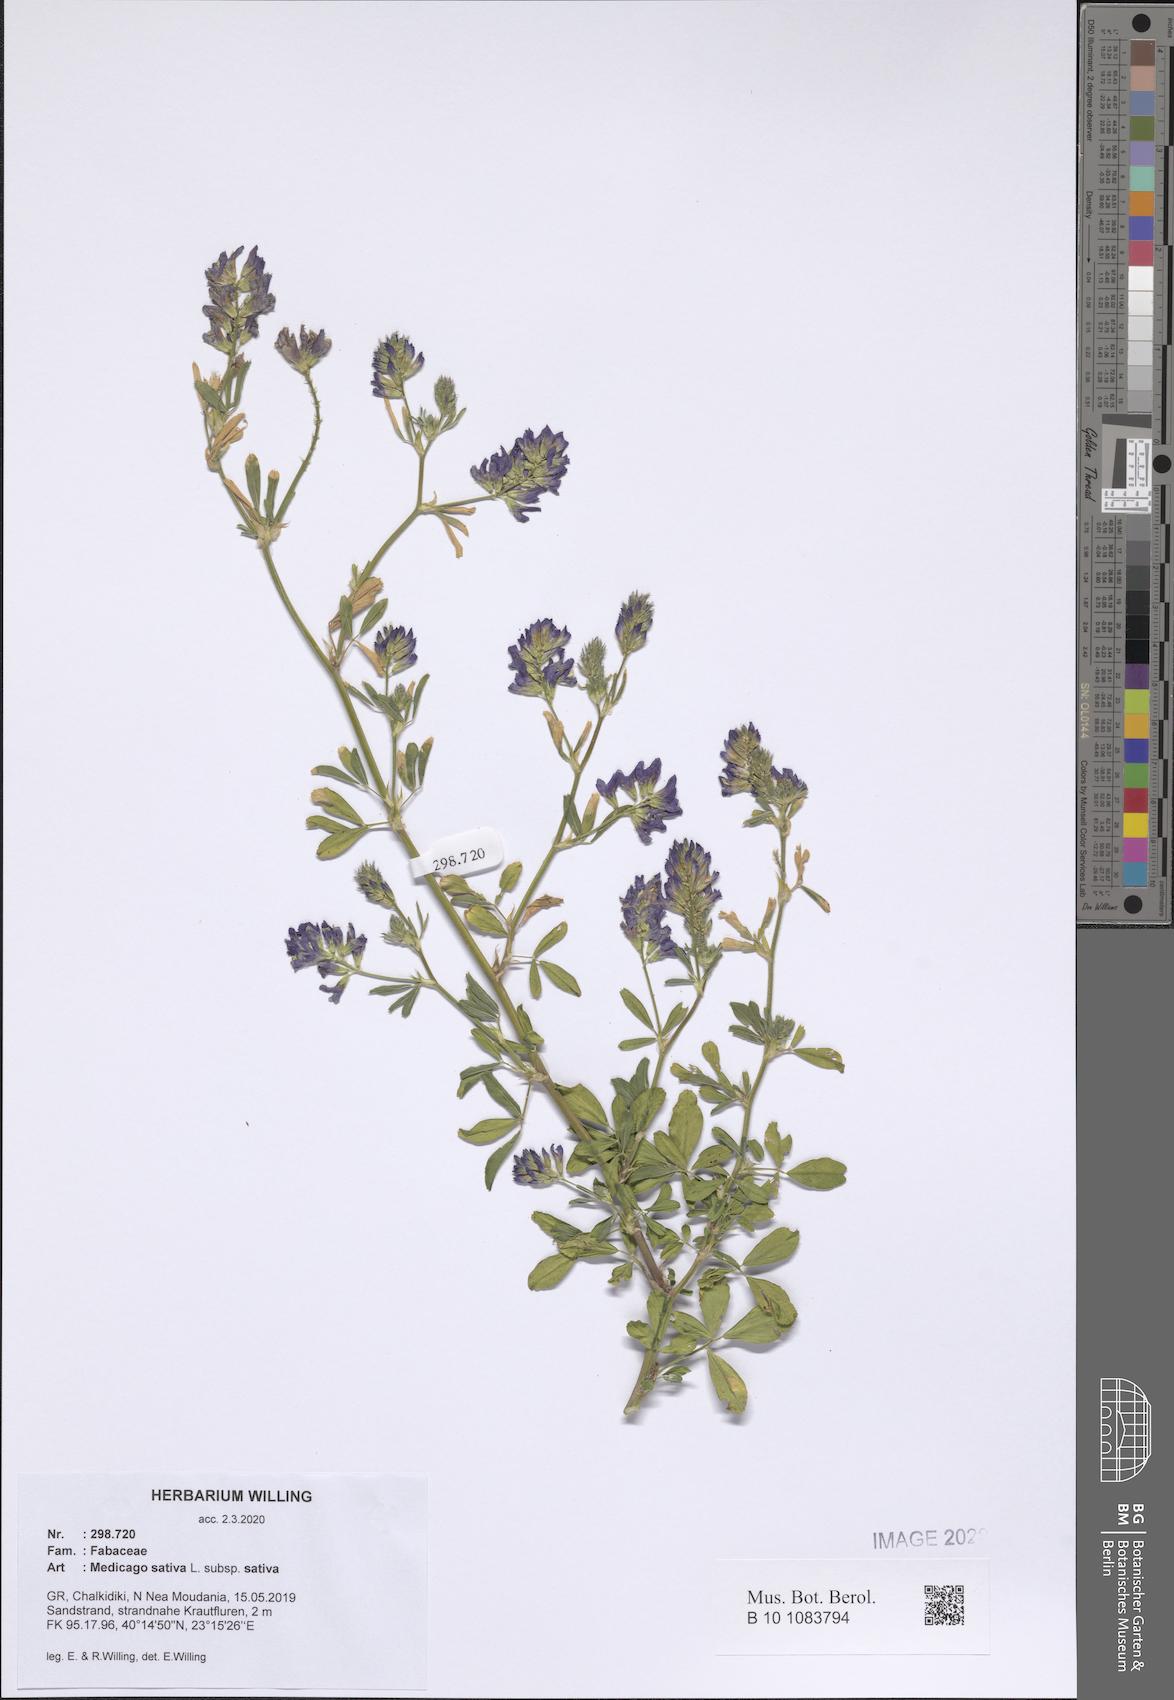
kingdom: Plantae
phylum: Tracheophyta
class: Magnoliopsida
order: Fabales
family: Fabaceae
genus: Medicago
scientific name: Medicago sativa
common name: Alfalfa
